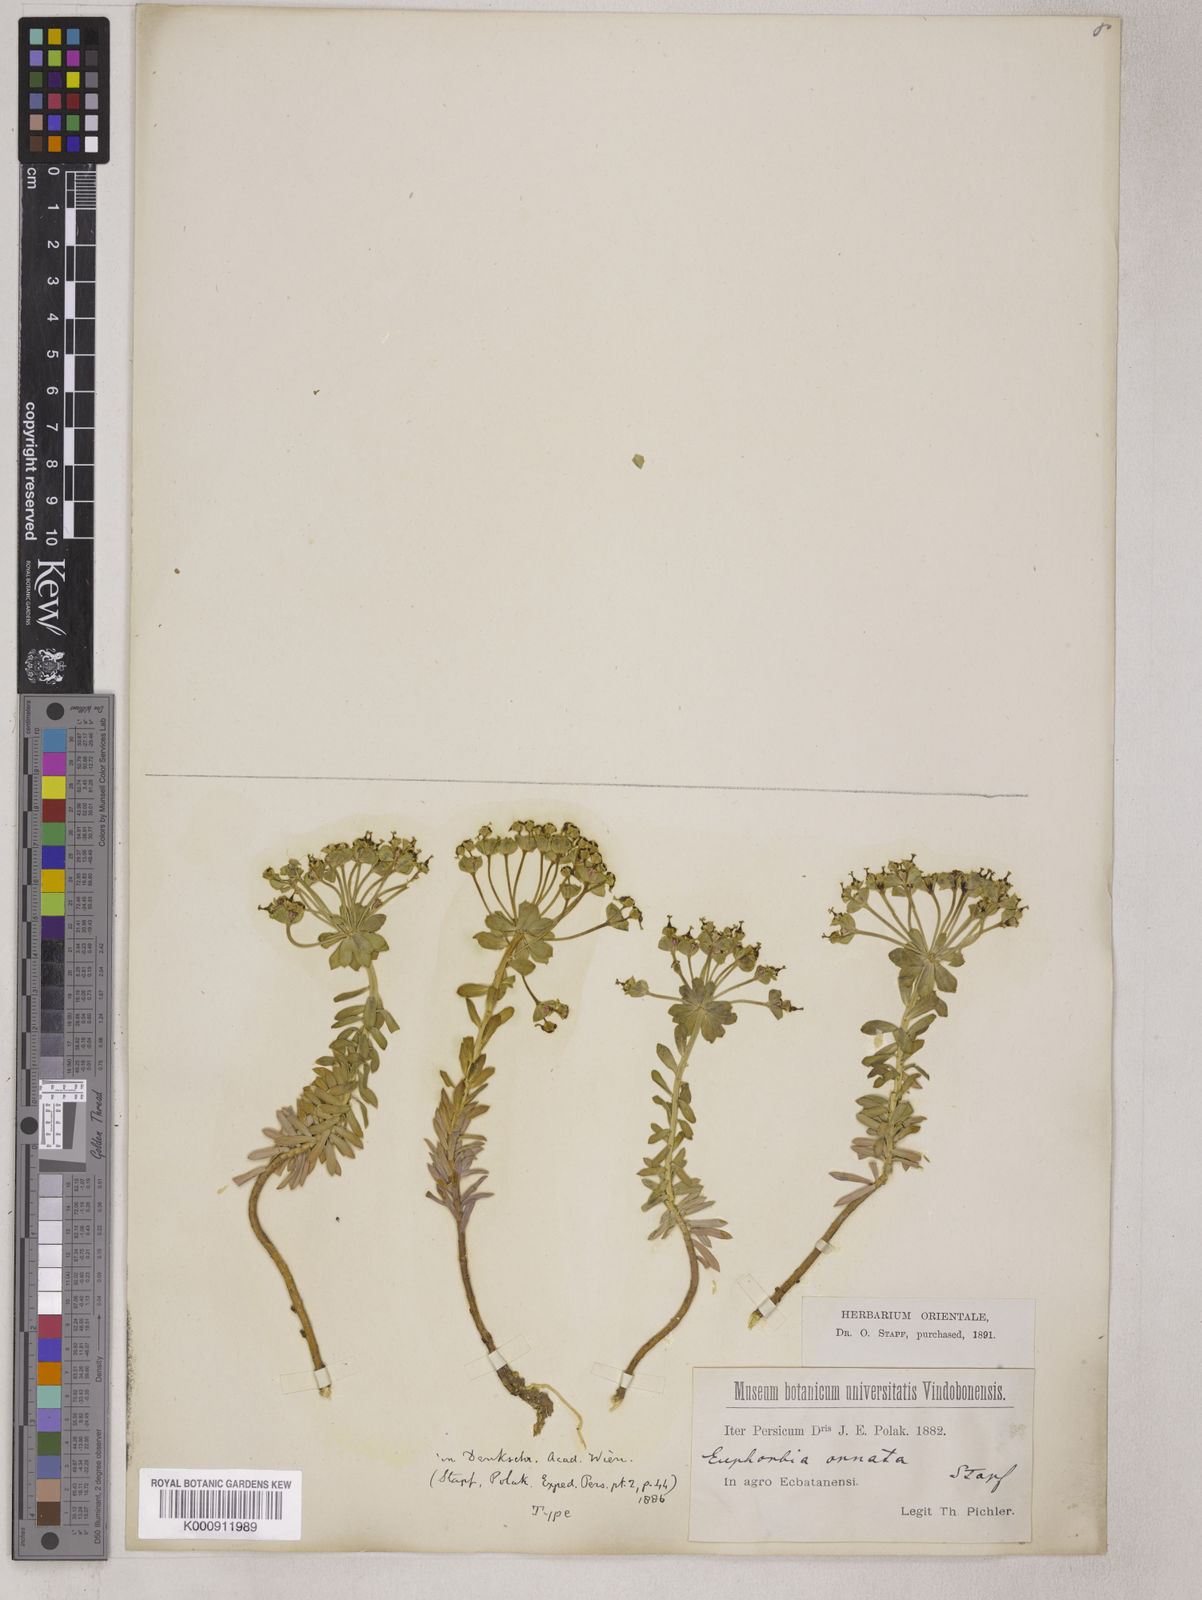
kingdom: Plantae
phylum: Tracheophyta
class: Magnoliopsida
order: Malpighiales
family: Euphorbiaceae
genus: Euphorbia
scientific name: Euphorbia polycaulis
